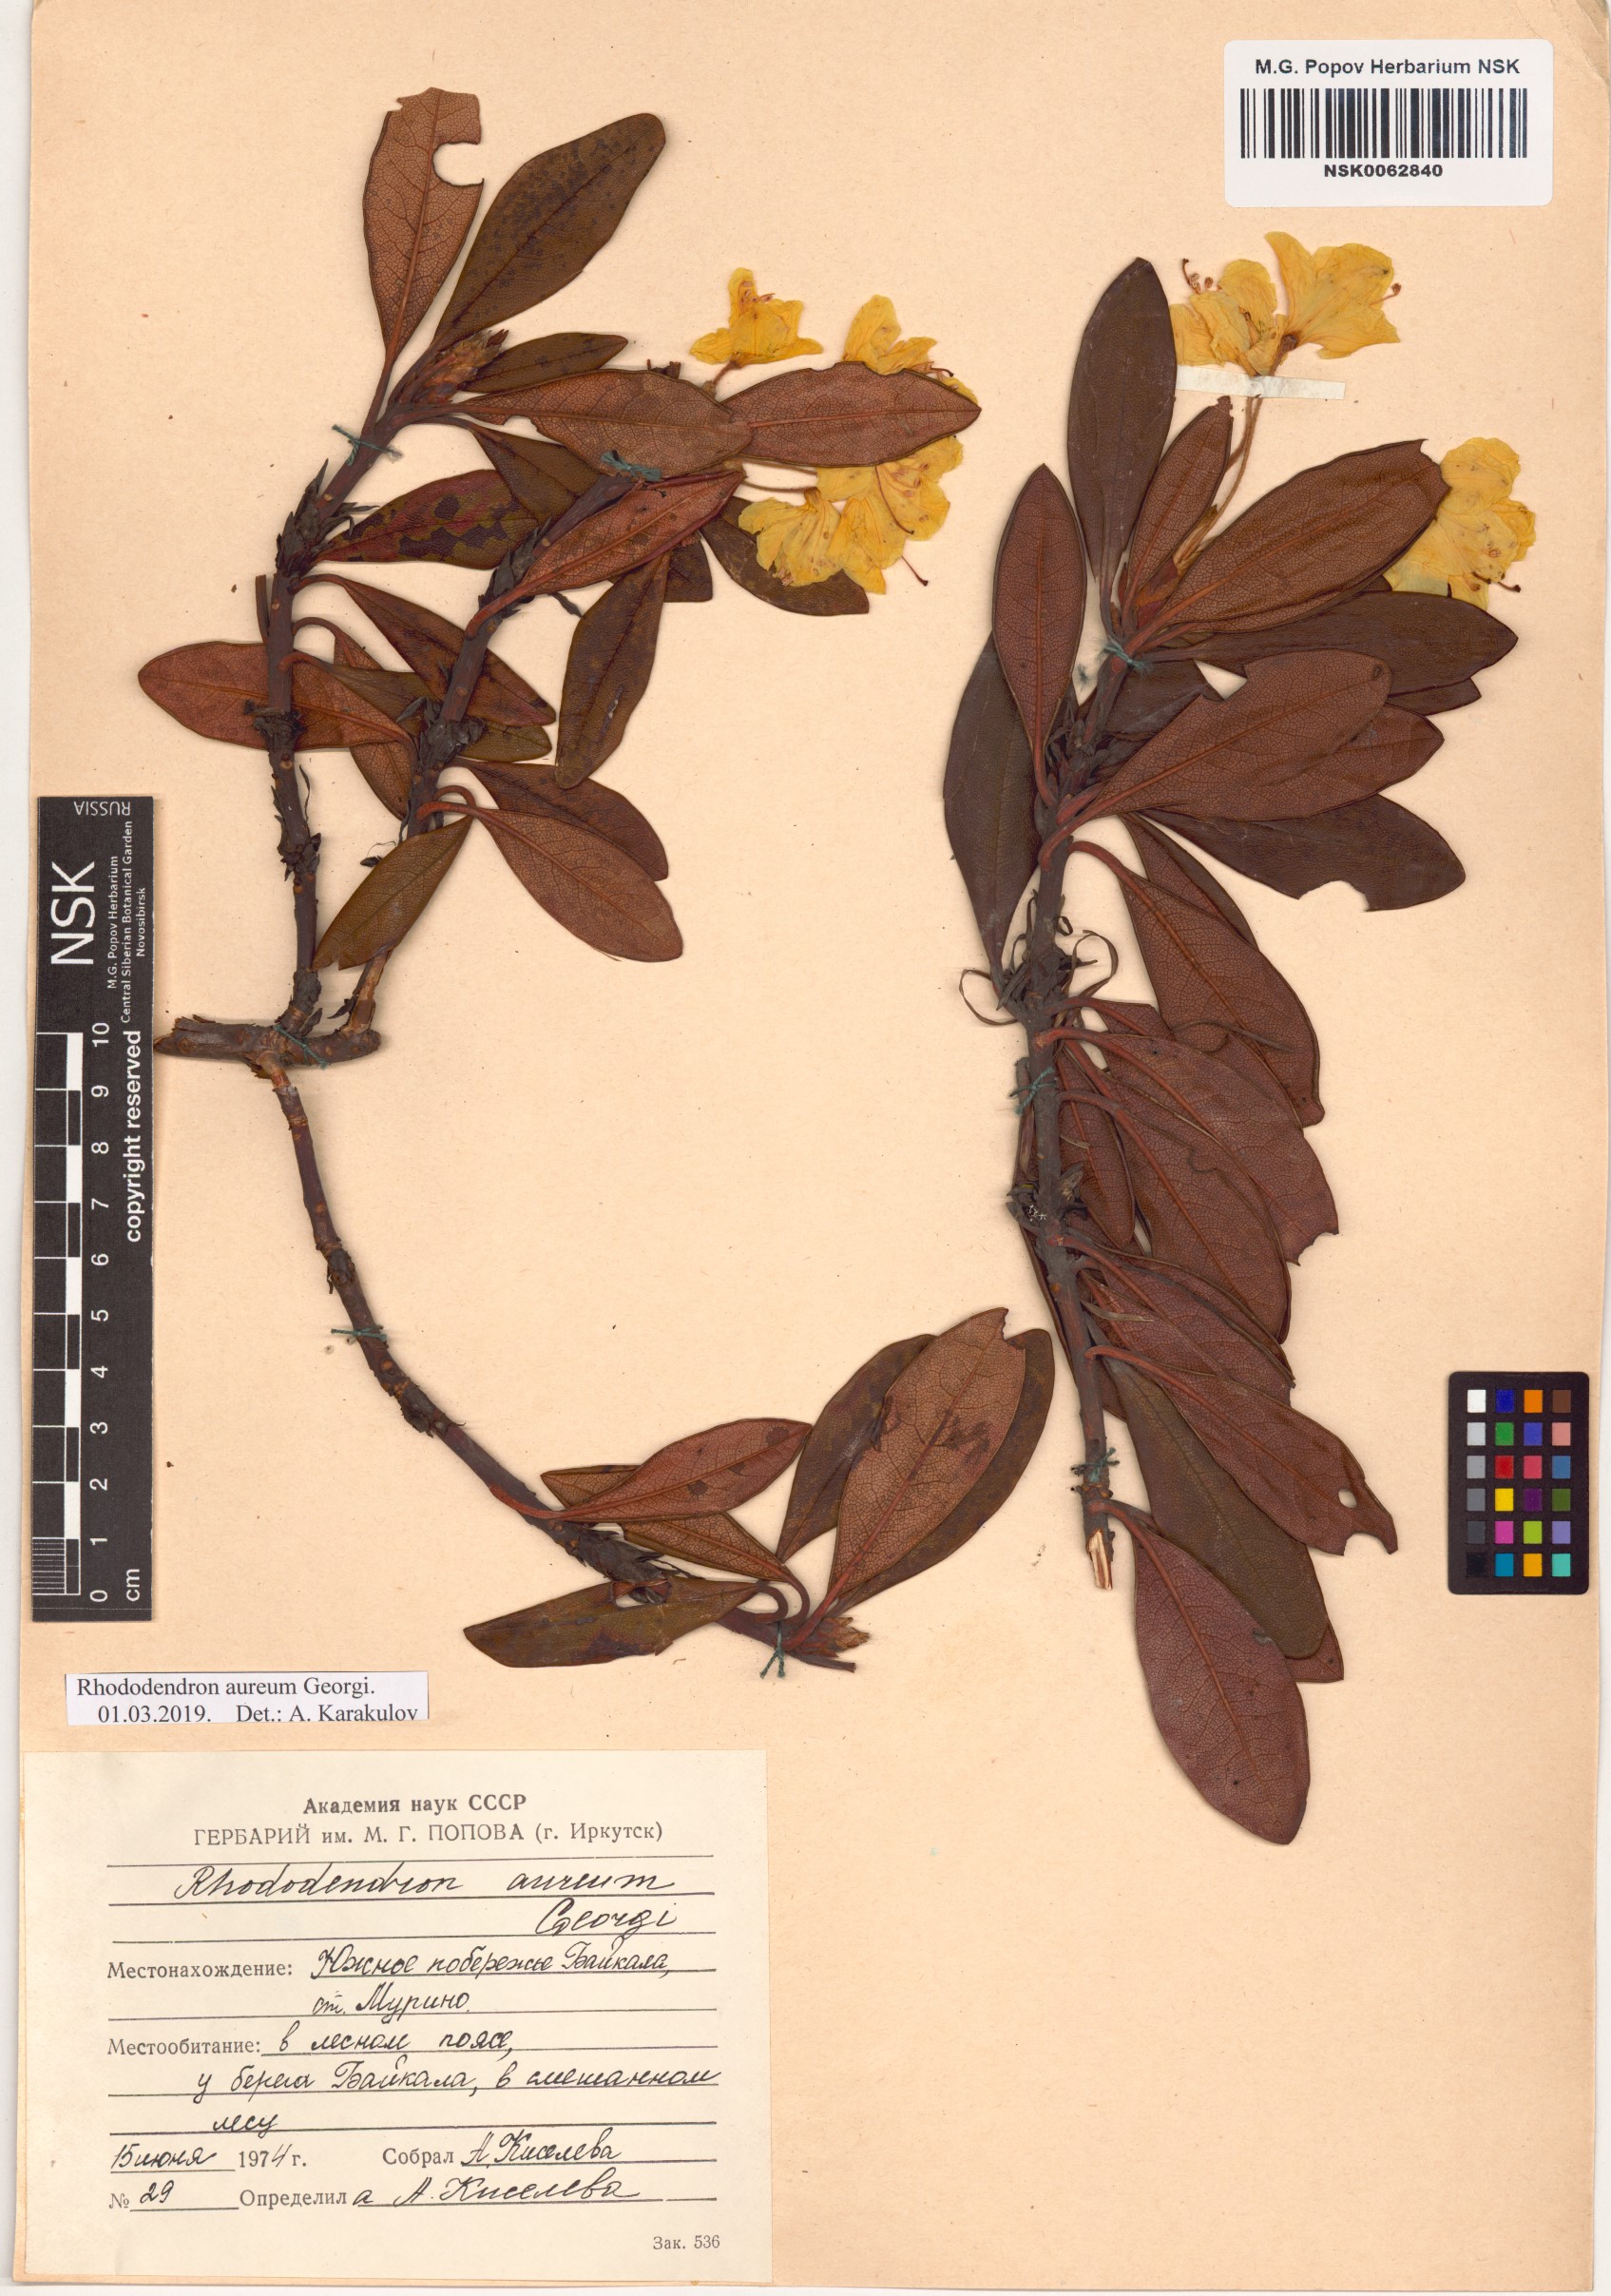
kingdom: Plantae
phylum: Tracheophyta
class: Magnoliopsida
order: Ericales
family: Ericaceae
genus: Rhododendron
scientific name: Rhododendron aureum
